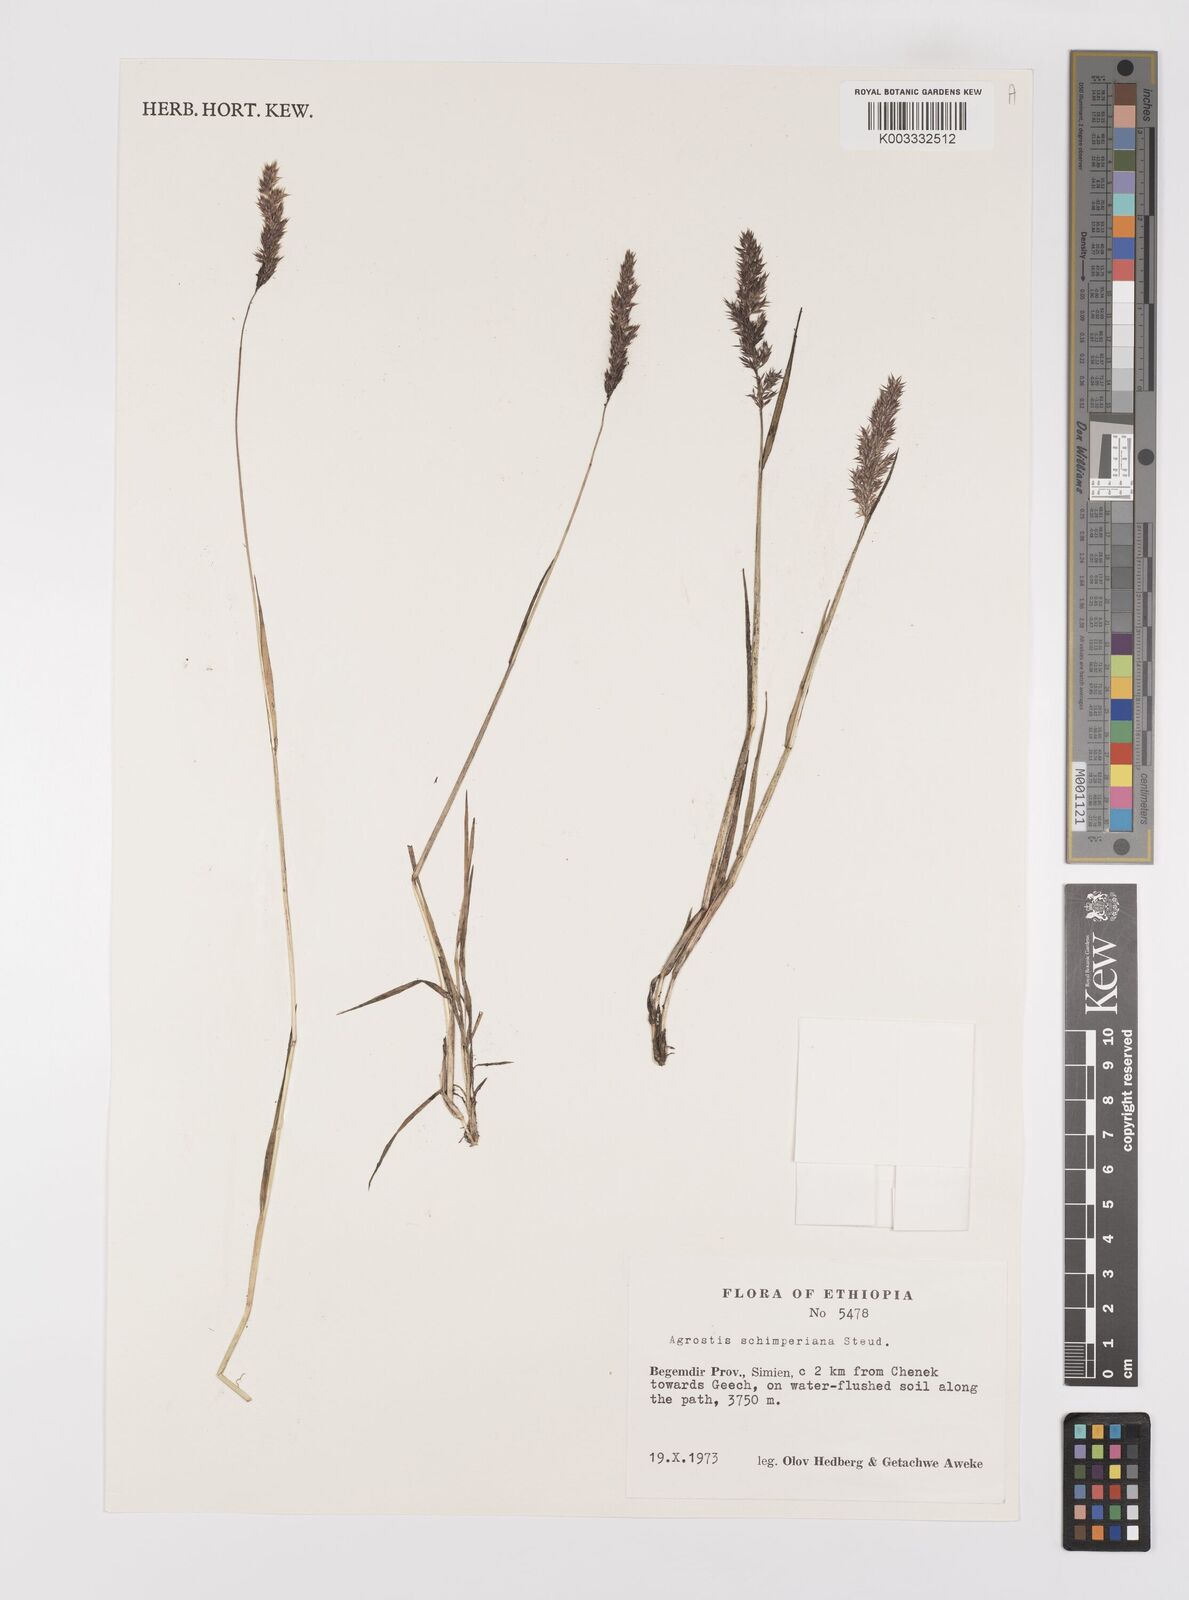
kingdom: Plantae
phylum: Tracheophyta
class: Liliopsida
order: Poales
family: Poaceae
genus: Polypogon
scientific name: Polypogon schimperianus
